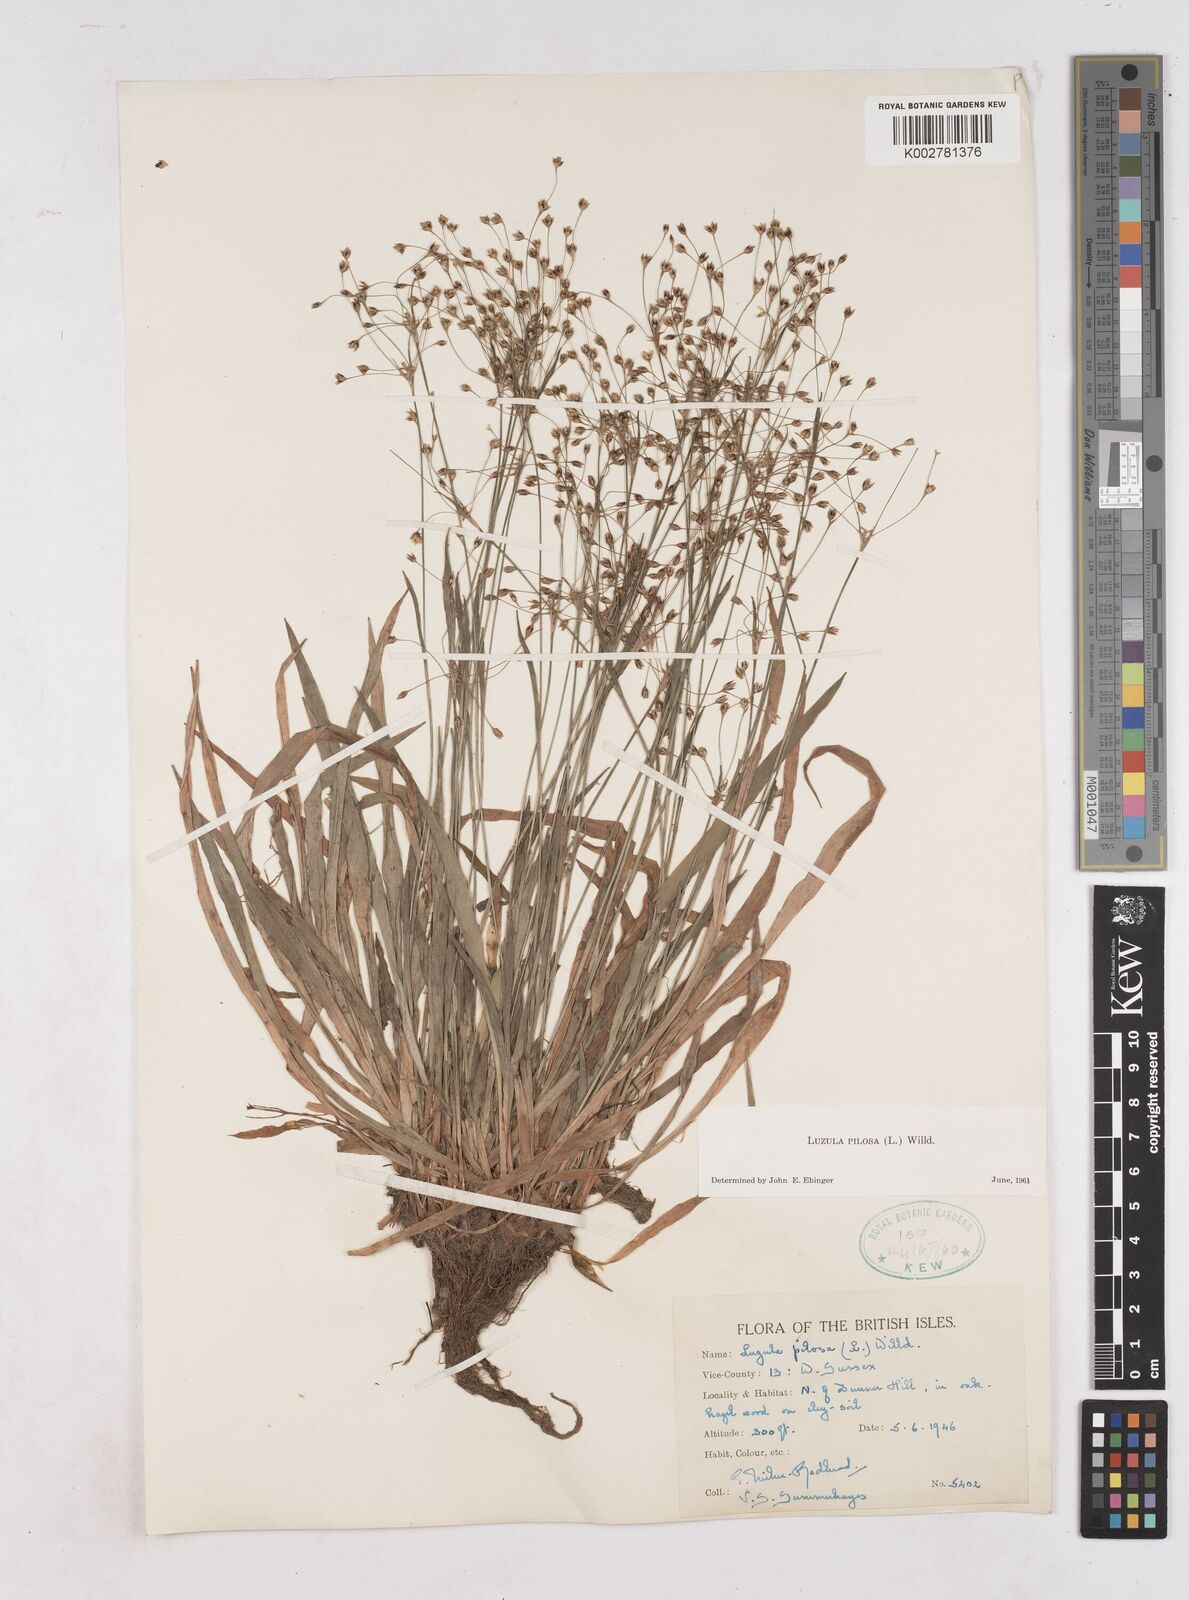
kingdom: Plantae
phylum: Tracheophyta
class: Liliopsida
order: Poales
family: Juncaceae
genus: Luzula
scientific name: Luzula pilosa
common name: Hairy wood-rush
